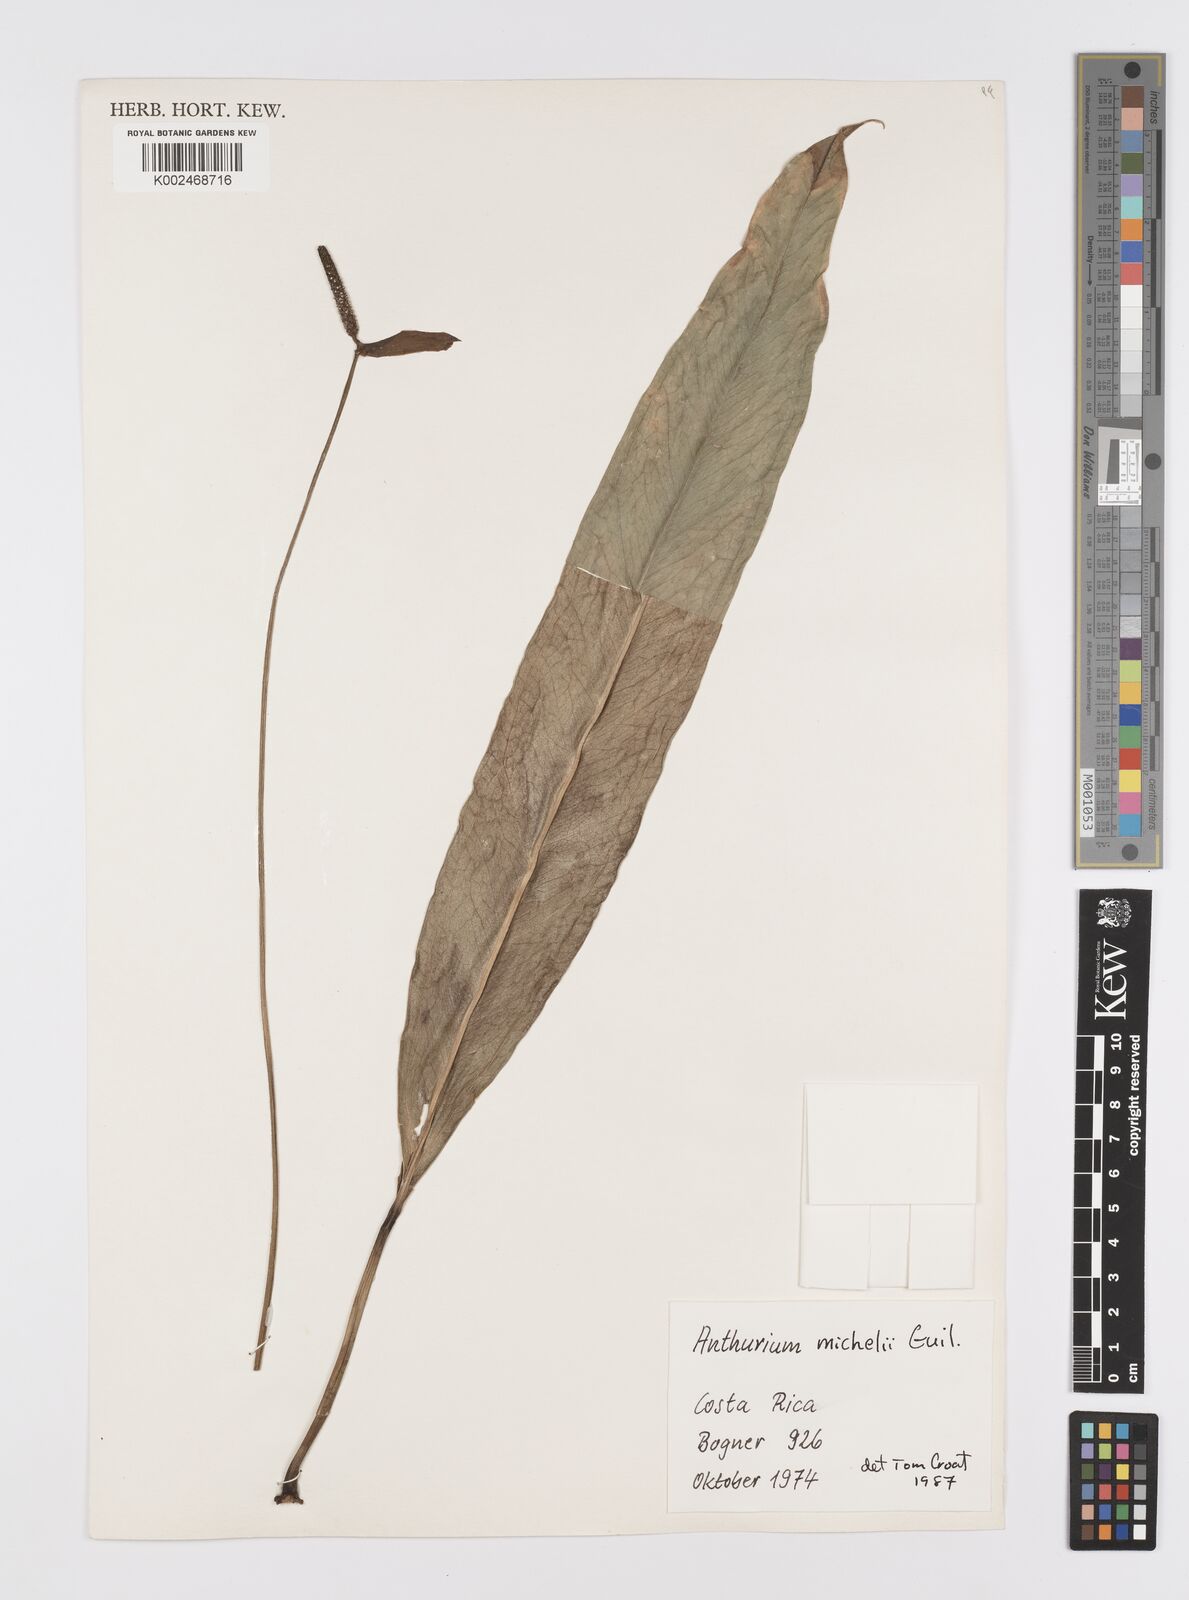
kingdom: Plantae
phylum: Tracheophyta
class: Liliopsida
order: Alismatales
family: Araceae
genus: Anthurium
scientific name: Anthurium michelii
